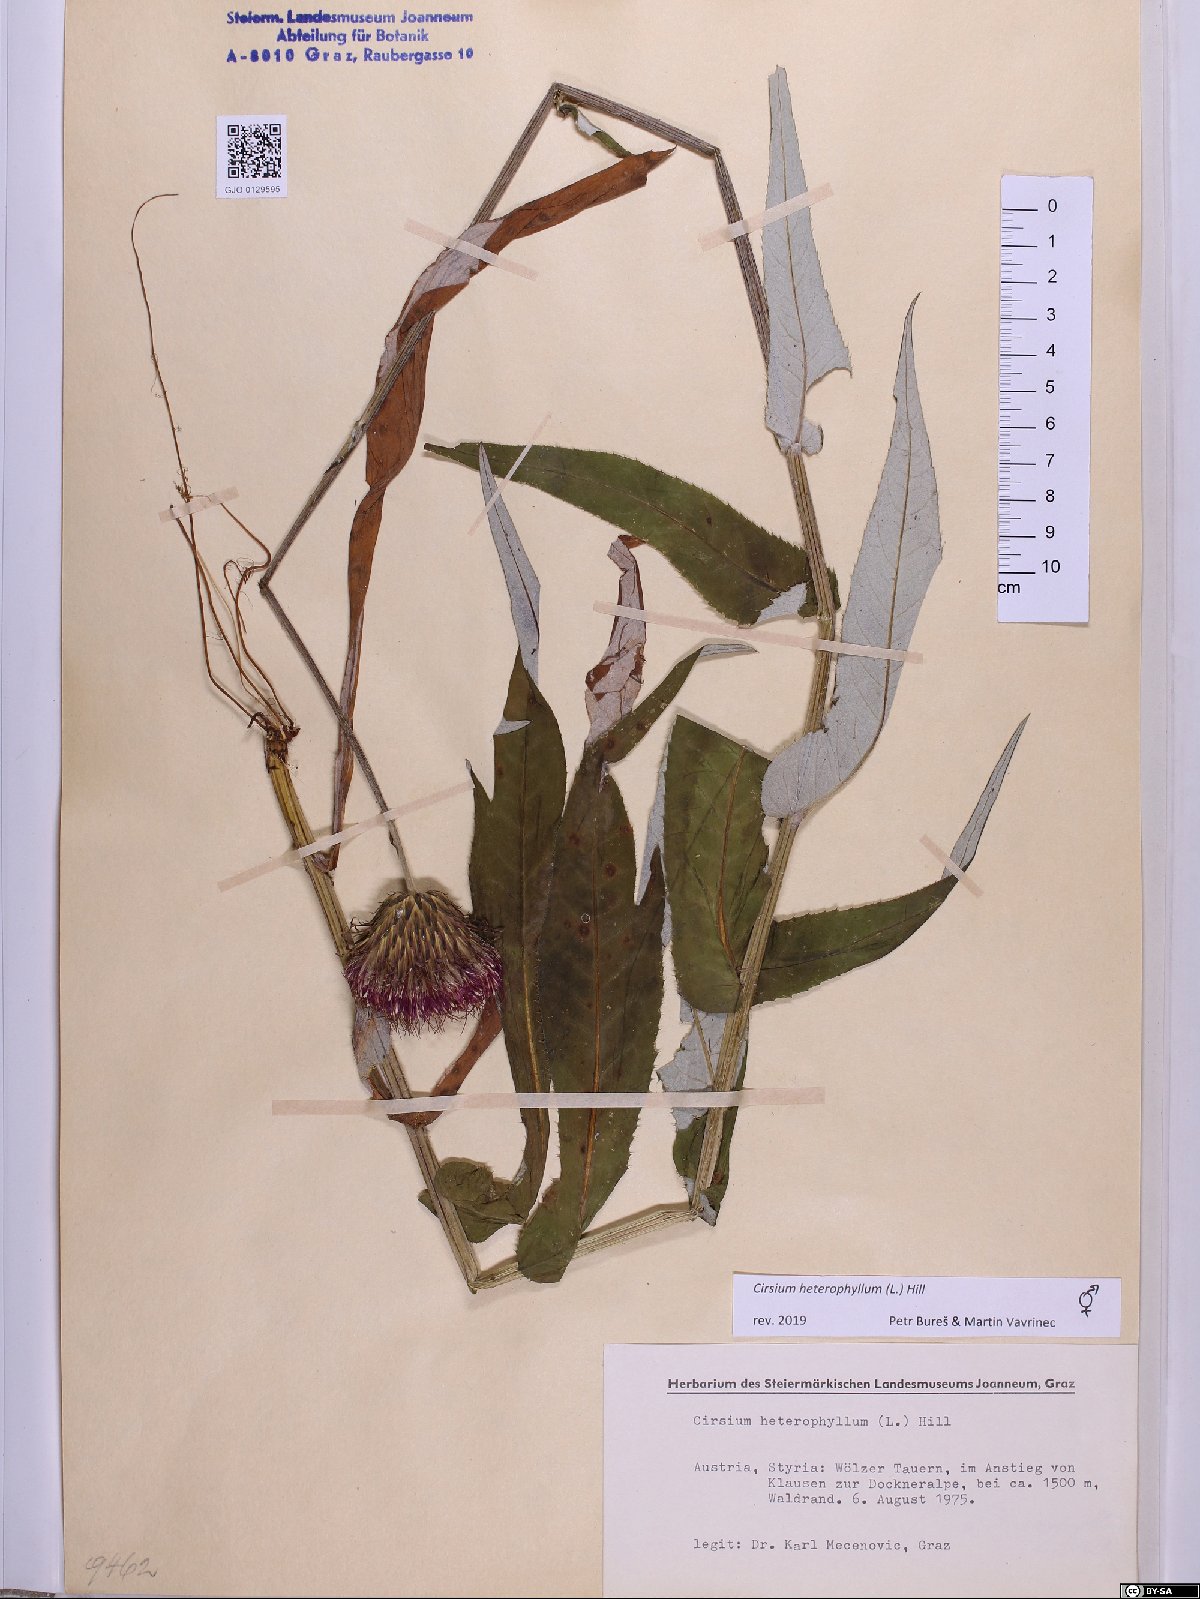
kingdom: Plantae
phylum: Tracheophyta
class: Magnoliopsida
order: Asterales
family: Asteraceae
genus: Cirsium
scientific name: Cirsium heterophyllum
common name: Melancholy thistle
